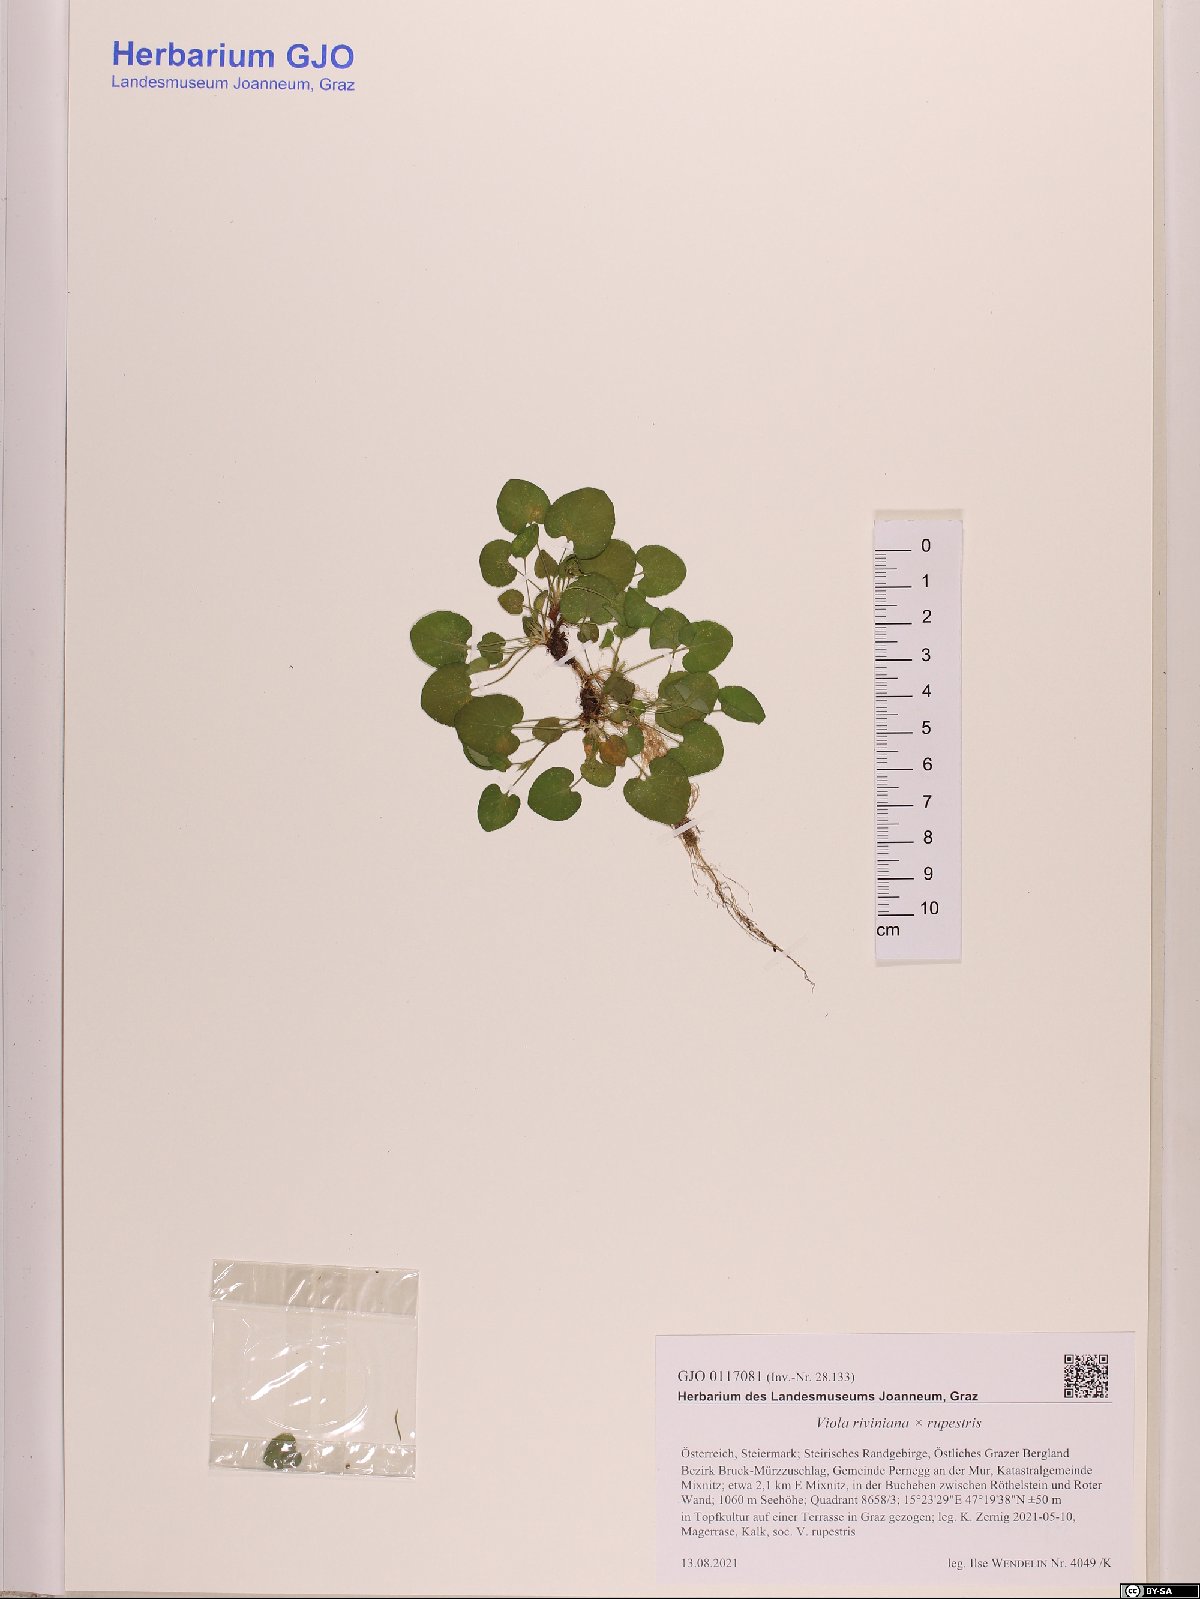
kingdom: Plantae
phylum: Tracheophyta
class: Magnoliopsida
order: Malpighiales
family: Violaceae
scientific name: Violaceae
